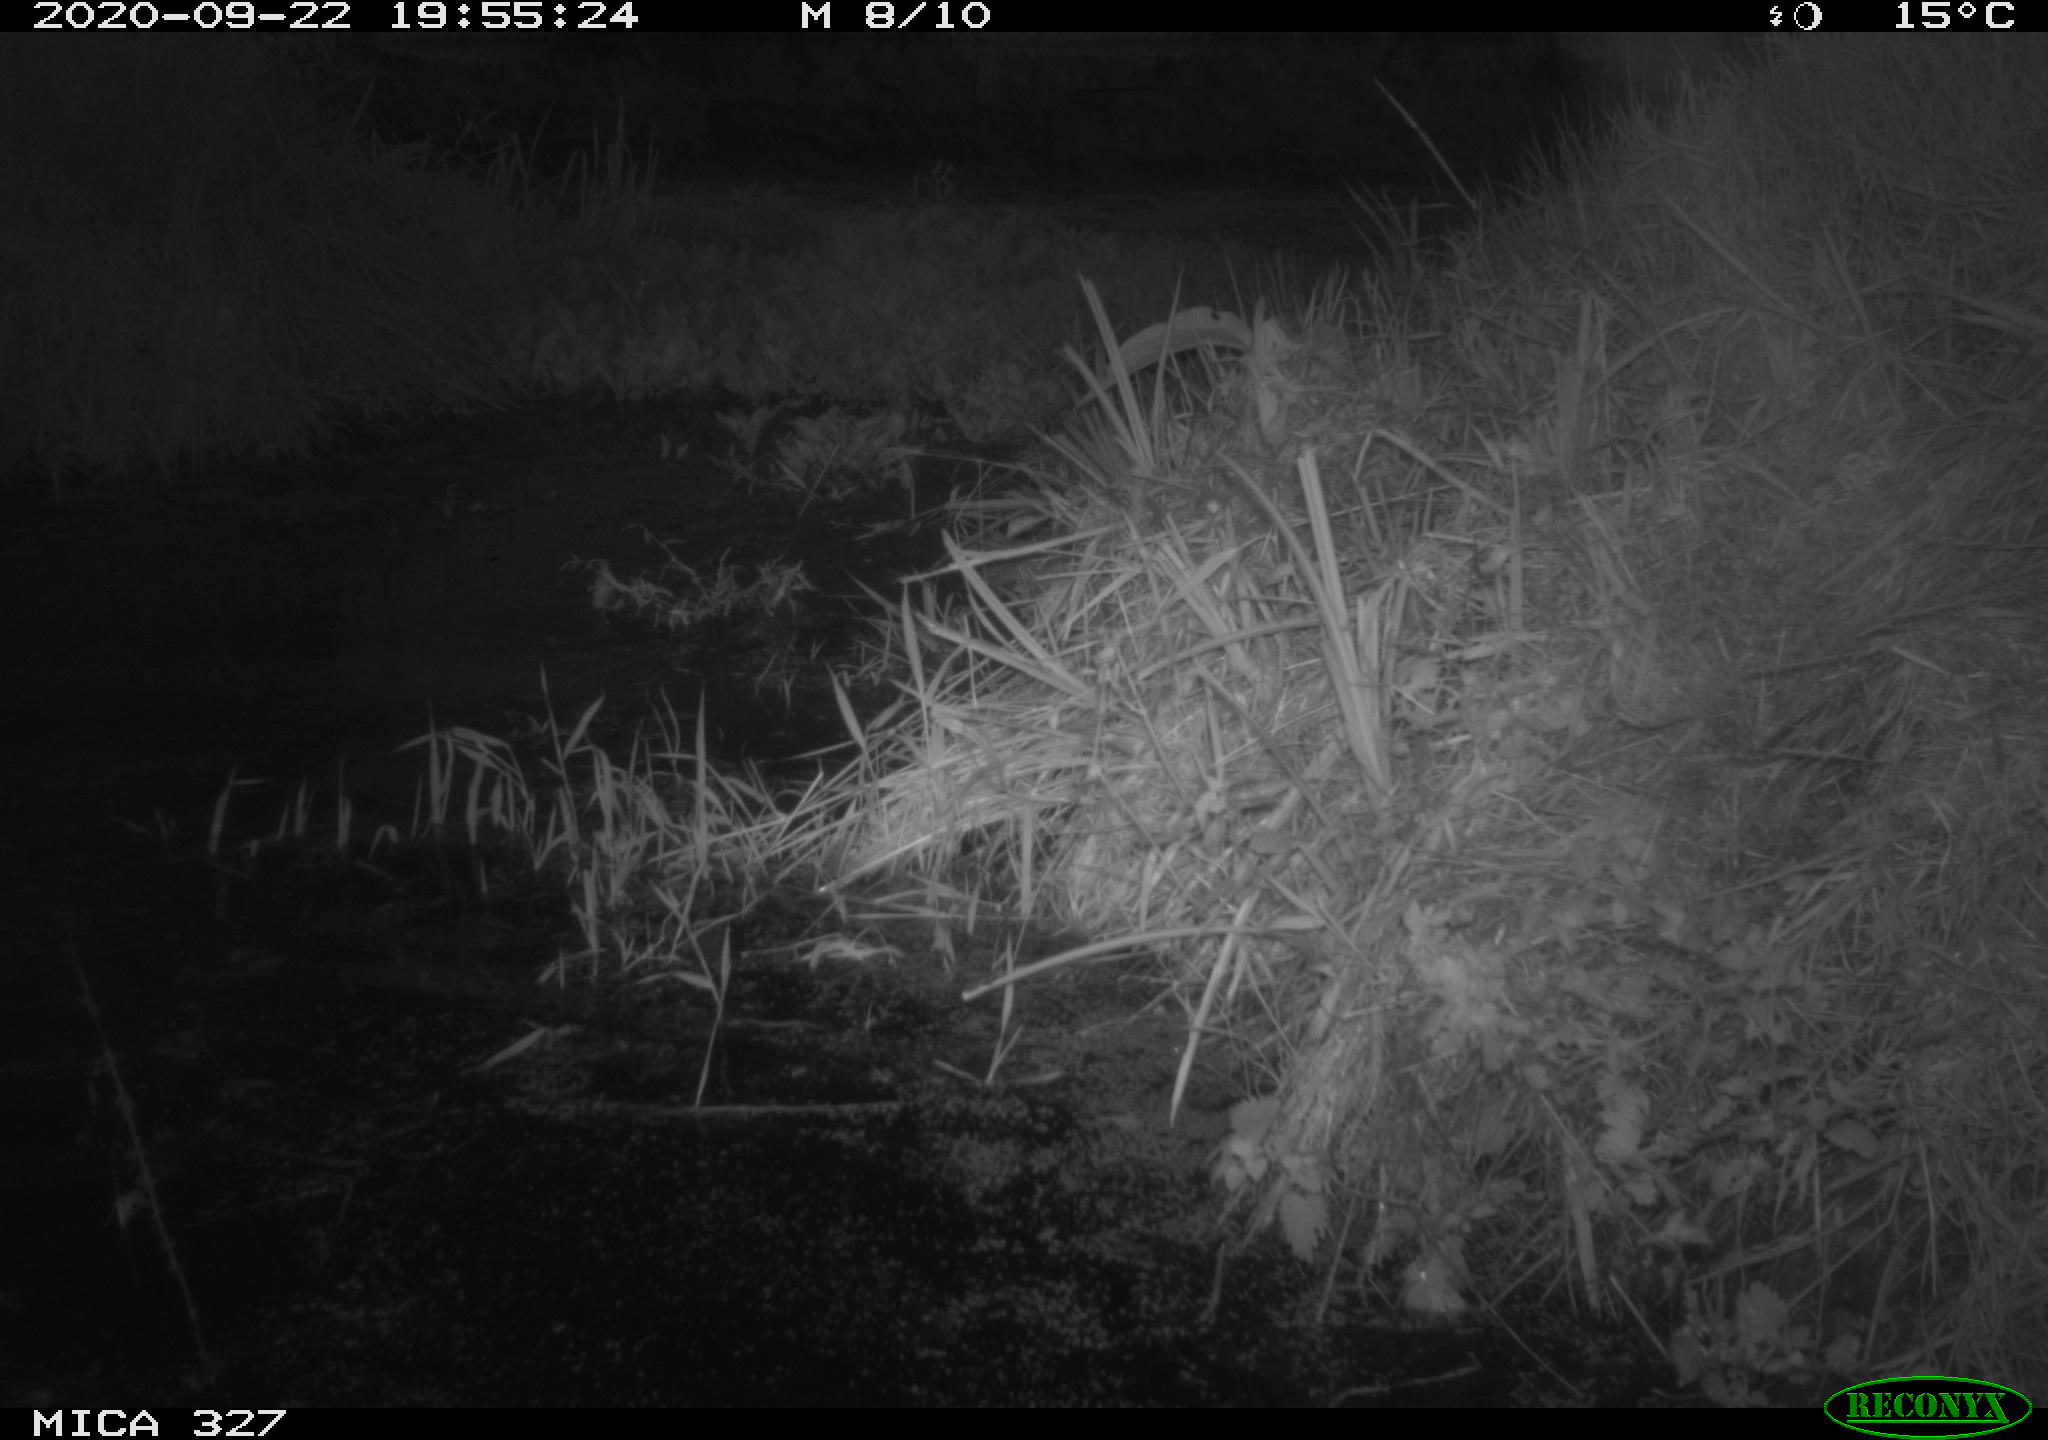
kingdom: Animalia
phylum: Chordata
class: Mammalia
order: Carnivora
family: Canidae
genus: Canis
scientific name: Canis lupus
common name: Gray wolf
